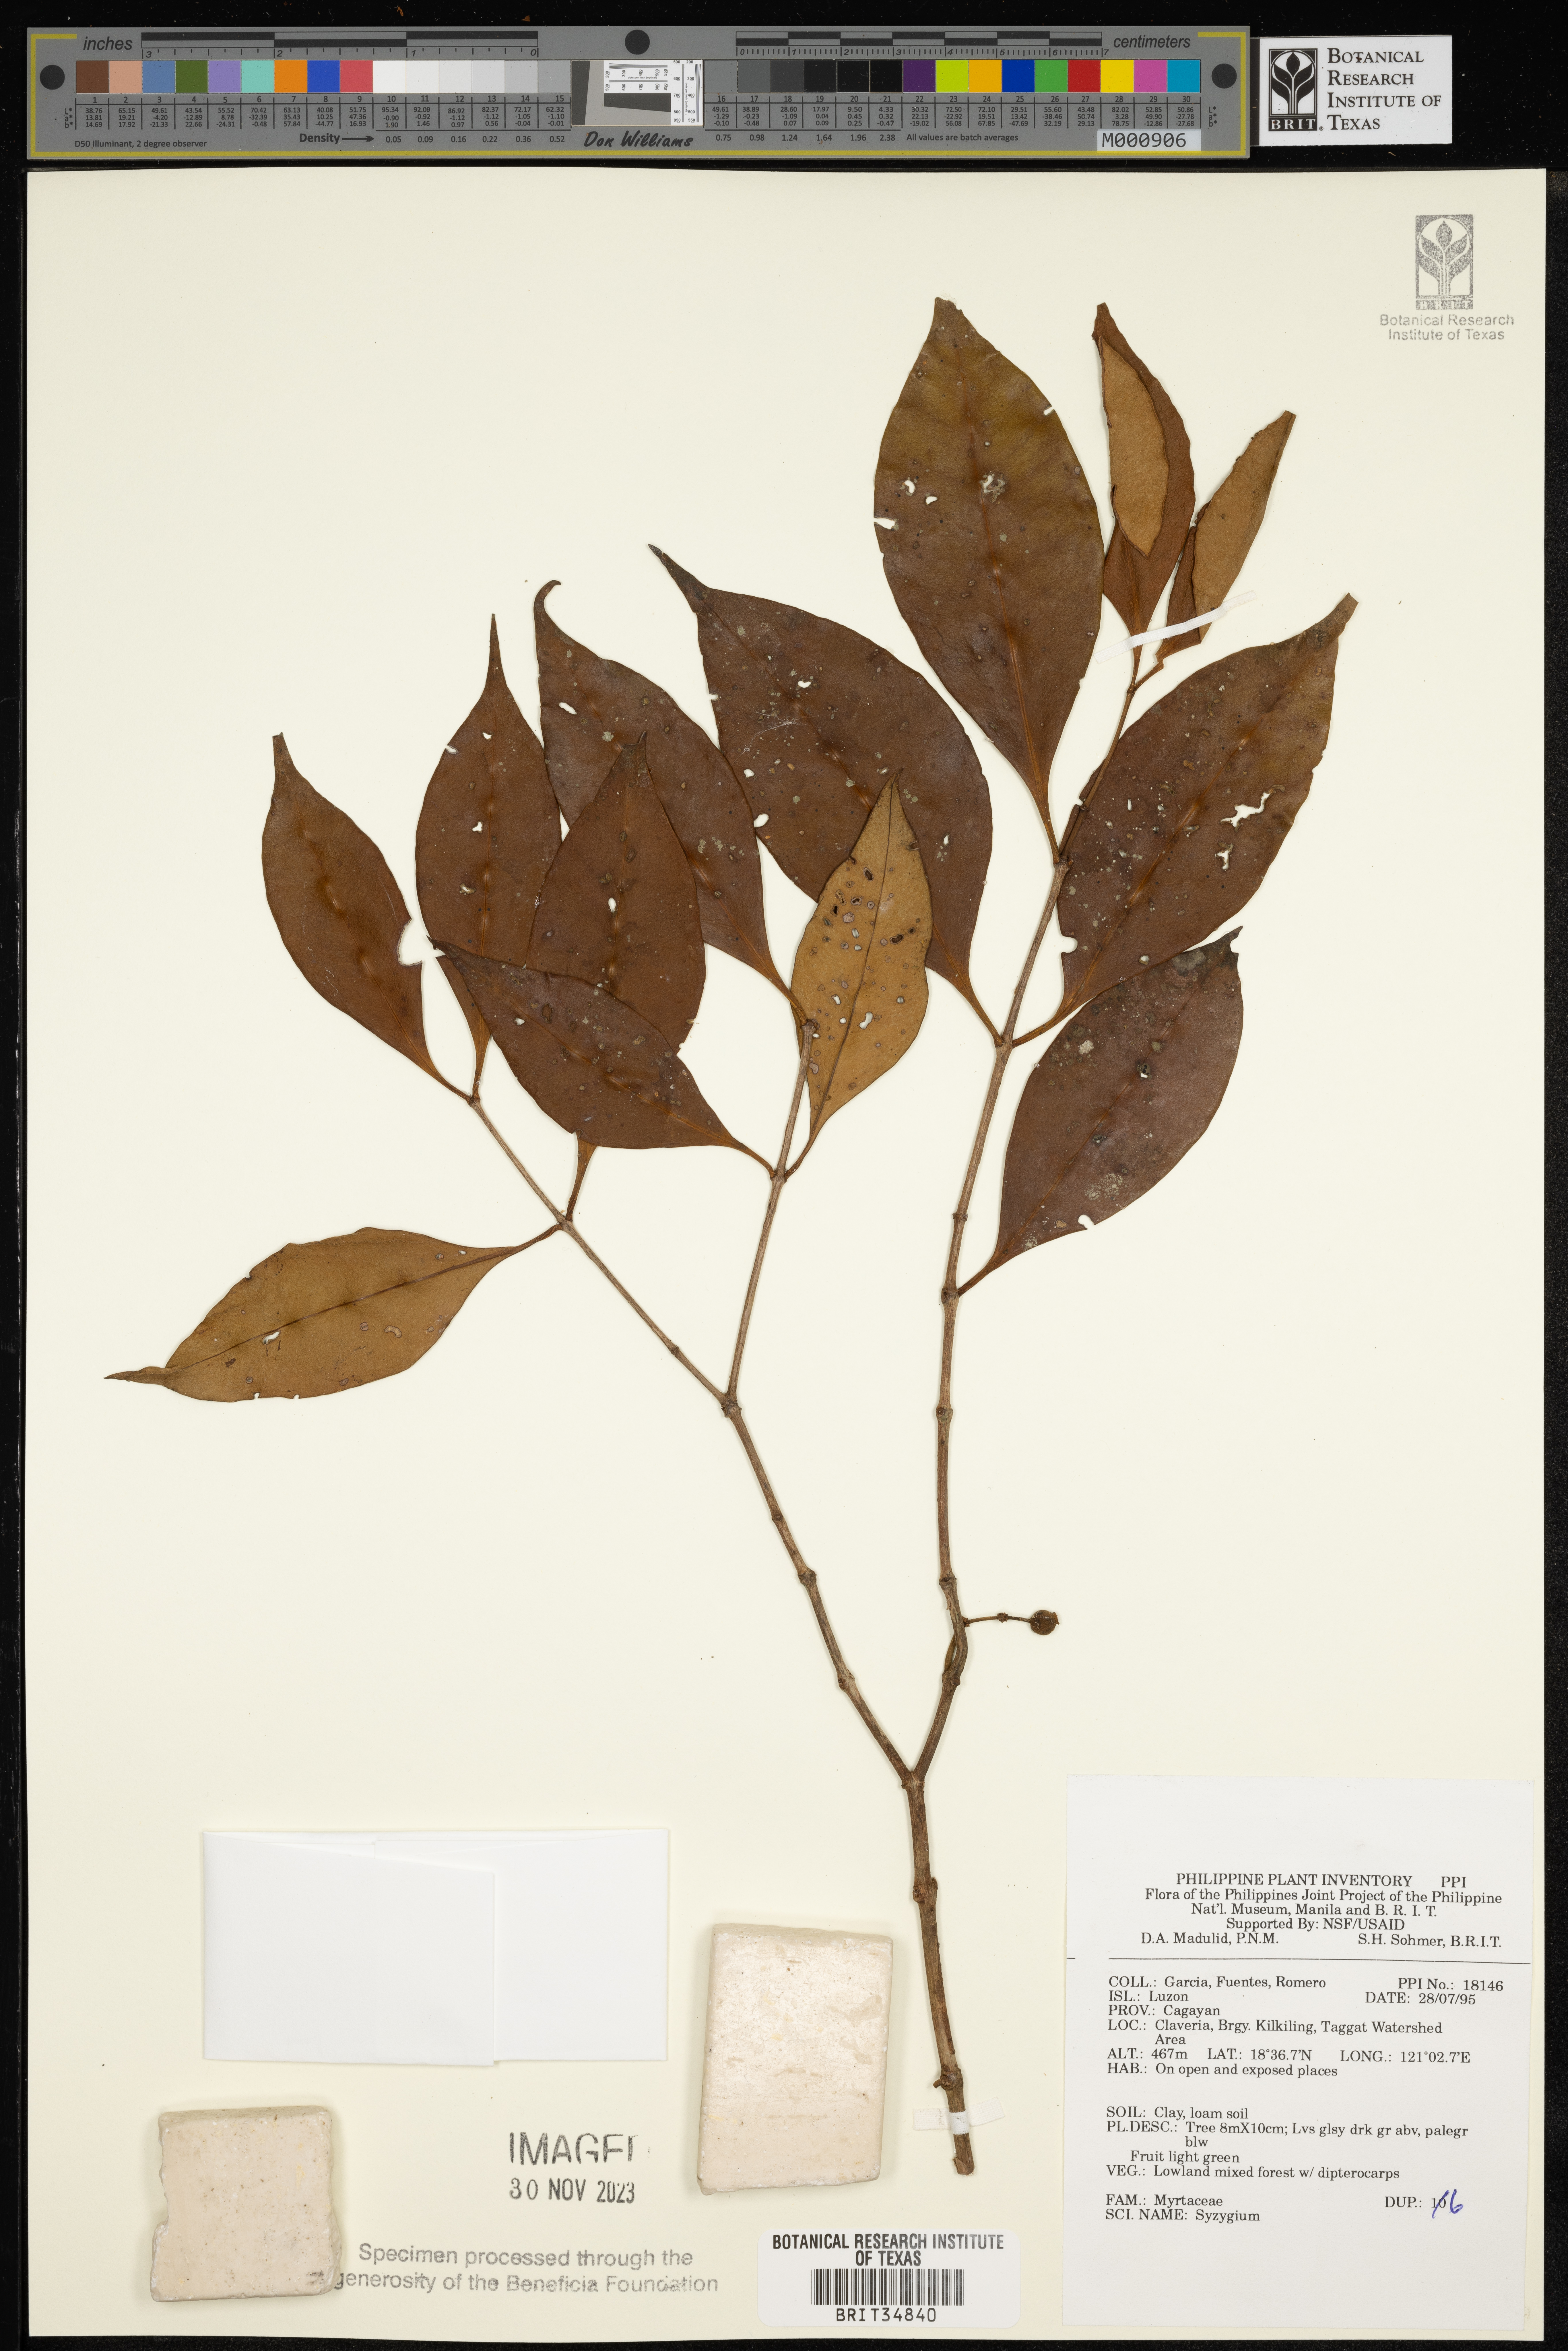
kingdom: Plantae
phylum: Tracheophyta
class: Magnoliopsida
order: Myrtales
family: Myrtaceae
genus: Syzygium
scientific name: Syzygium
